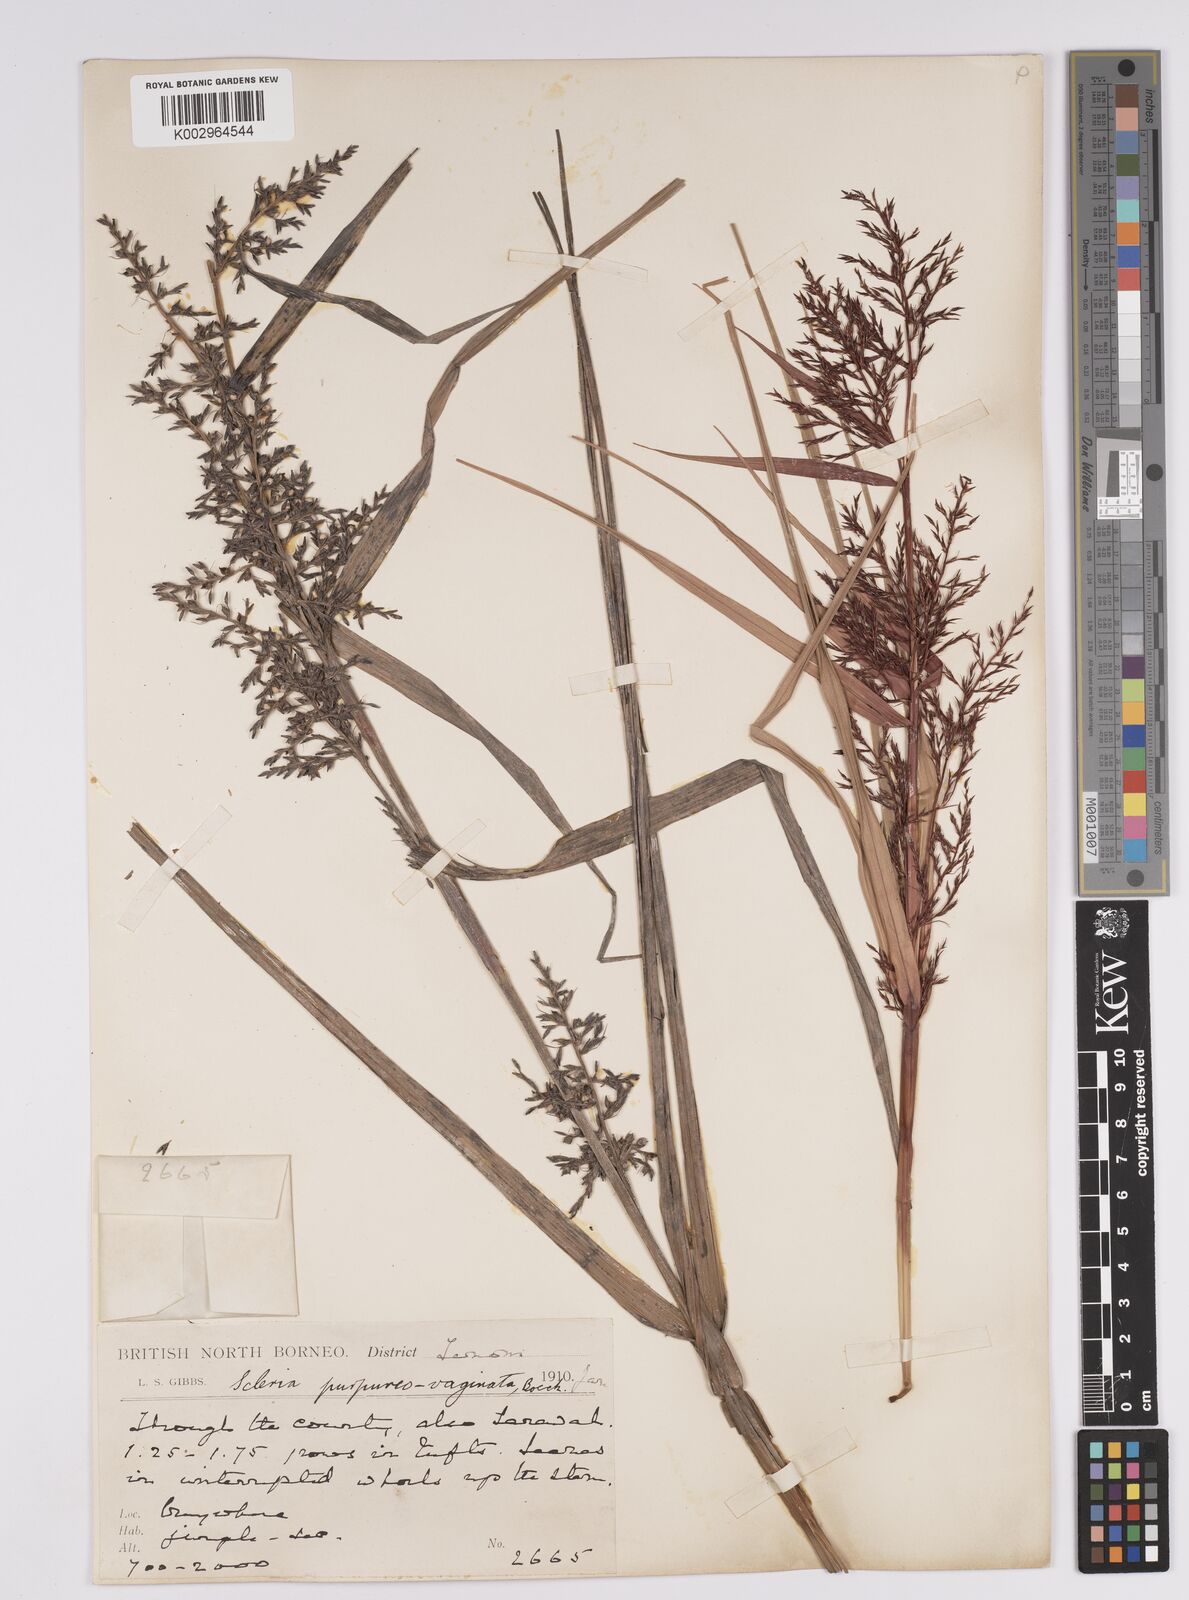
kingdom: Plantae
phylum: Tracheophyta
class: Liliopsida
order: Poales
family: Cyperaceae
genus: Scleria
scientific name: Scleria scrobiculata
